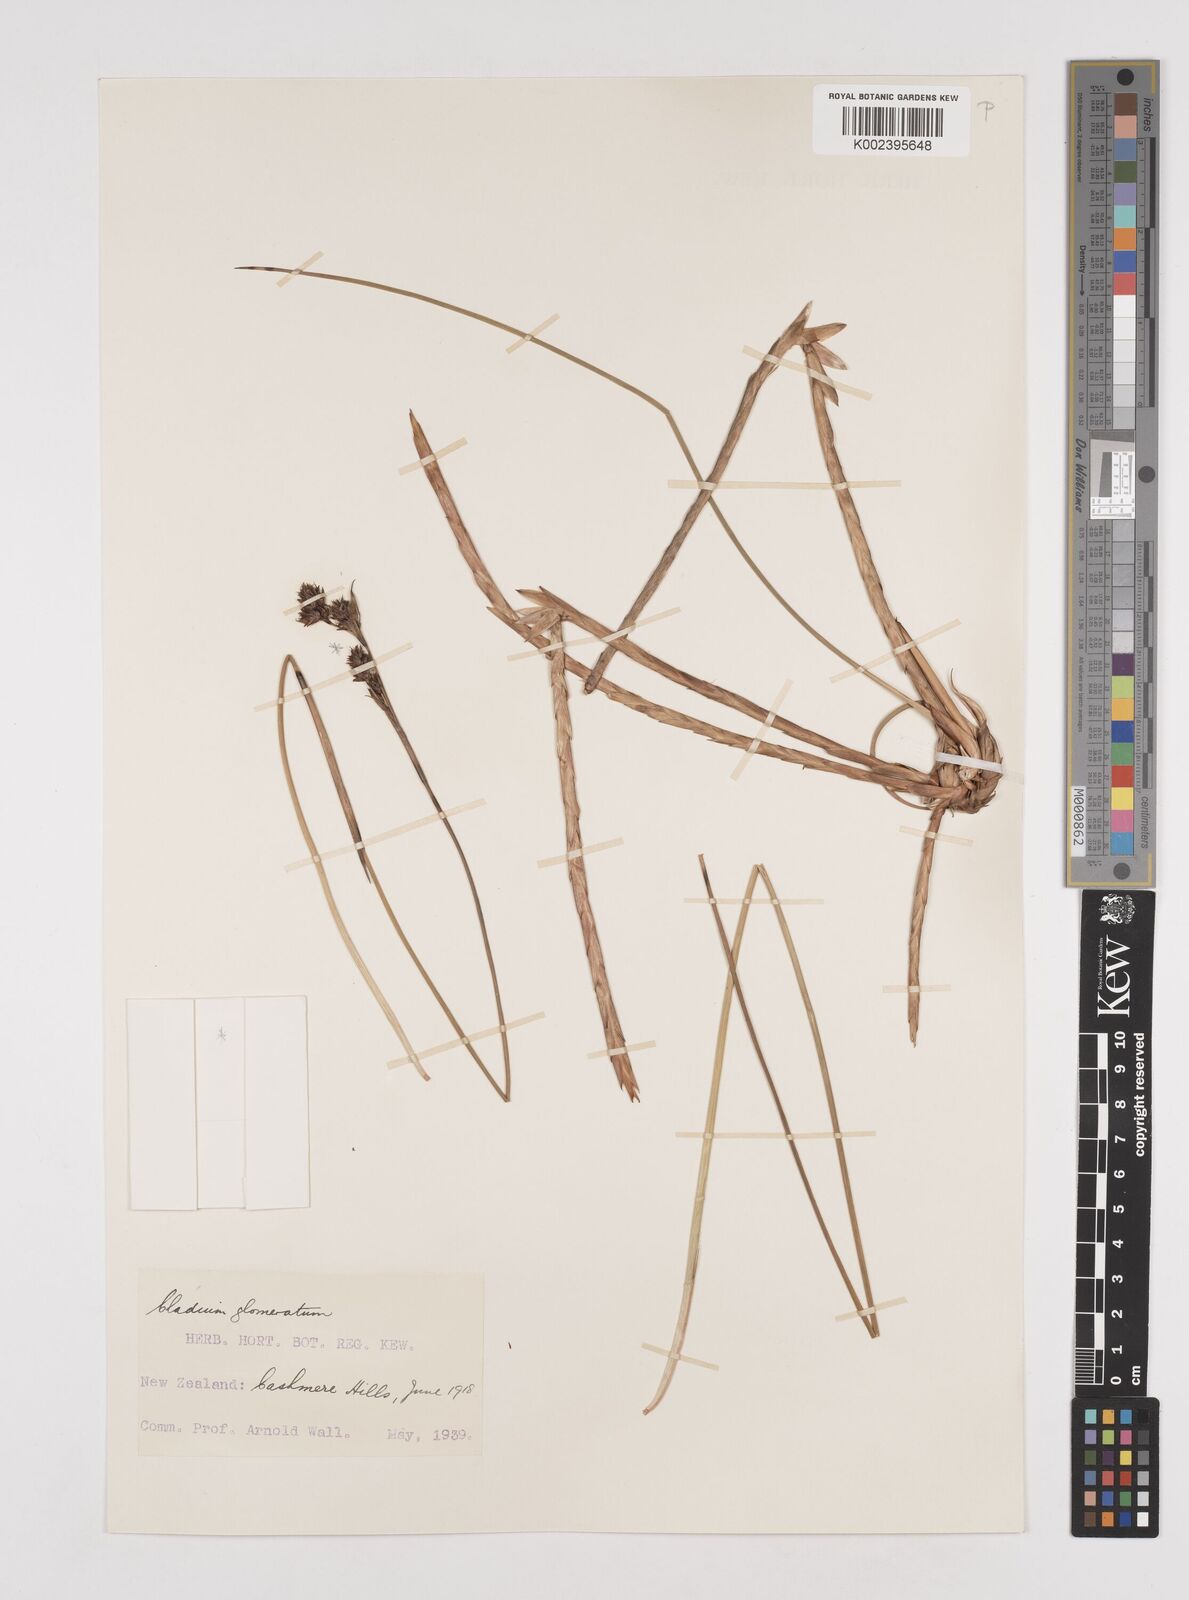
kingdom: Plantae
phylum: Tracheophyta
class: Liliopsida
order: Poales
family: Cyperaceae
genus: Machaerina
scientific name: Machaerina rubiginosa
